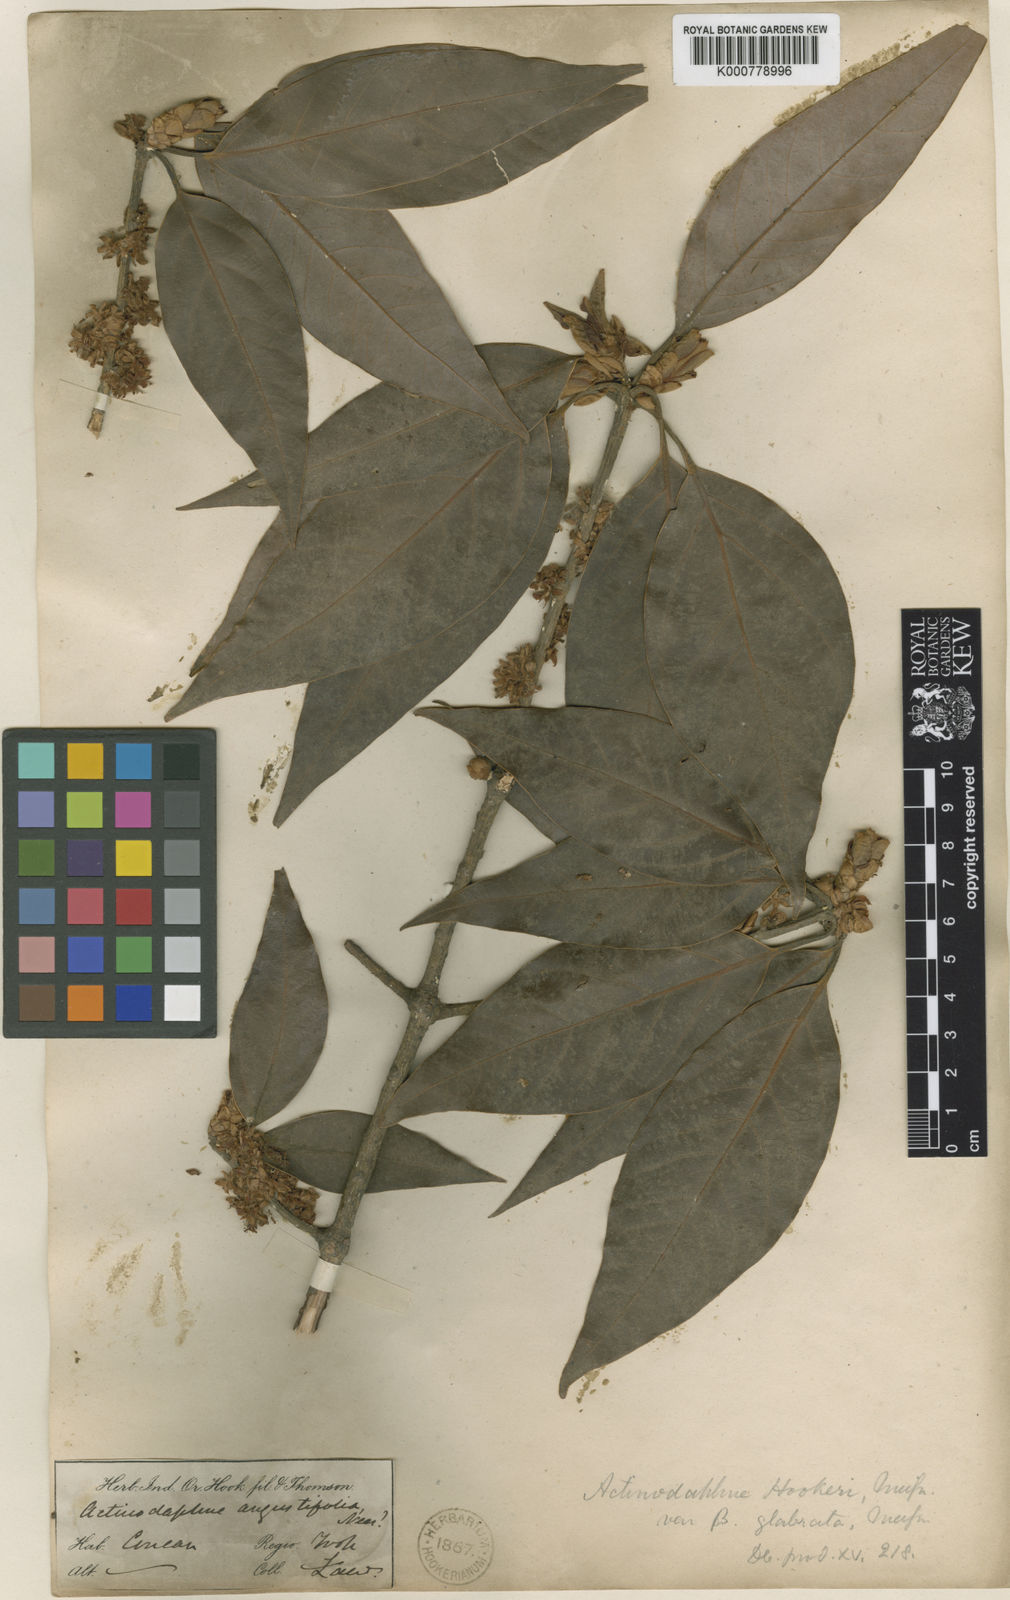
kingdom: Plantae
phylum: Tracheophyta
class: Magnoliopsida
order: Laurales
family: Lauraceae
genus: Actinodaphne
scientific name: Actinodaphne lanceolata
